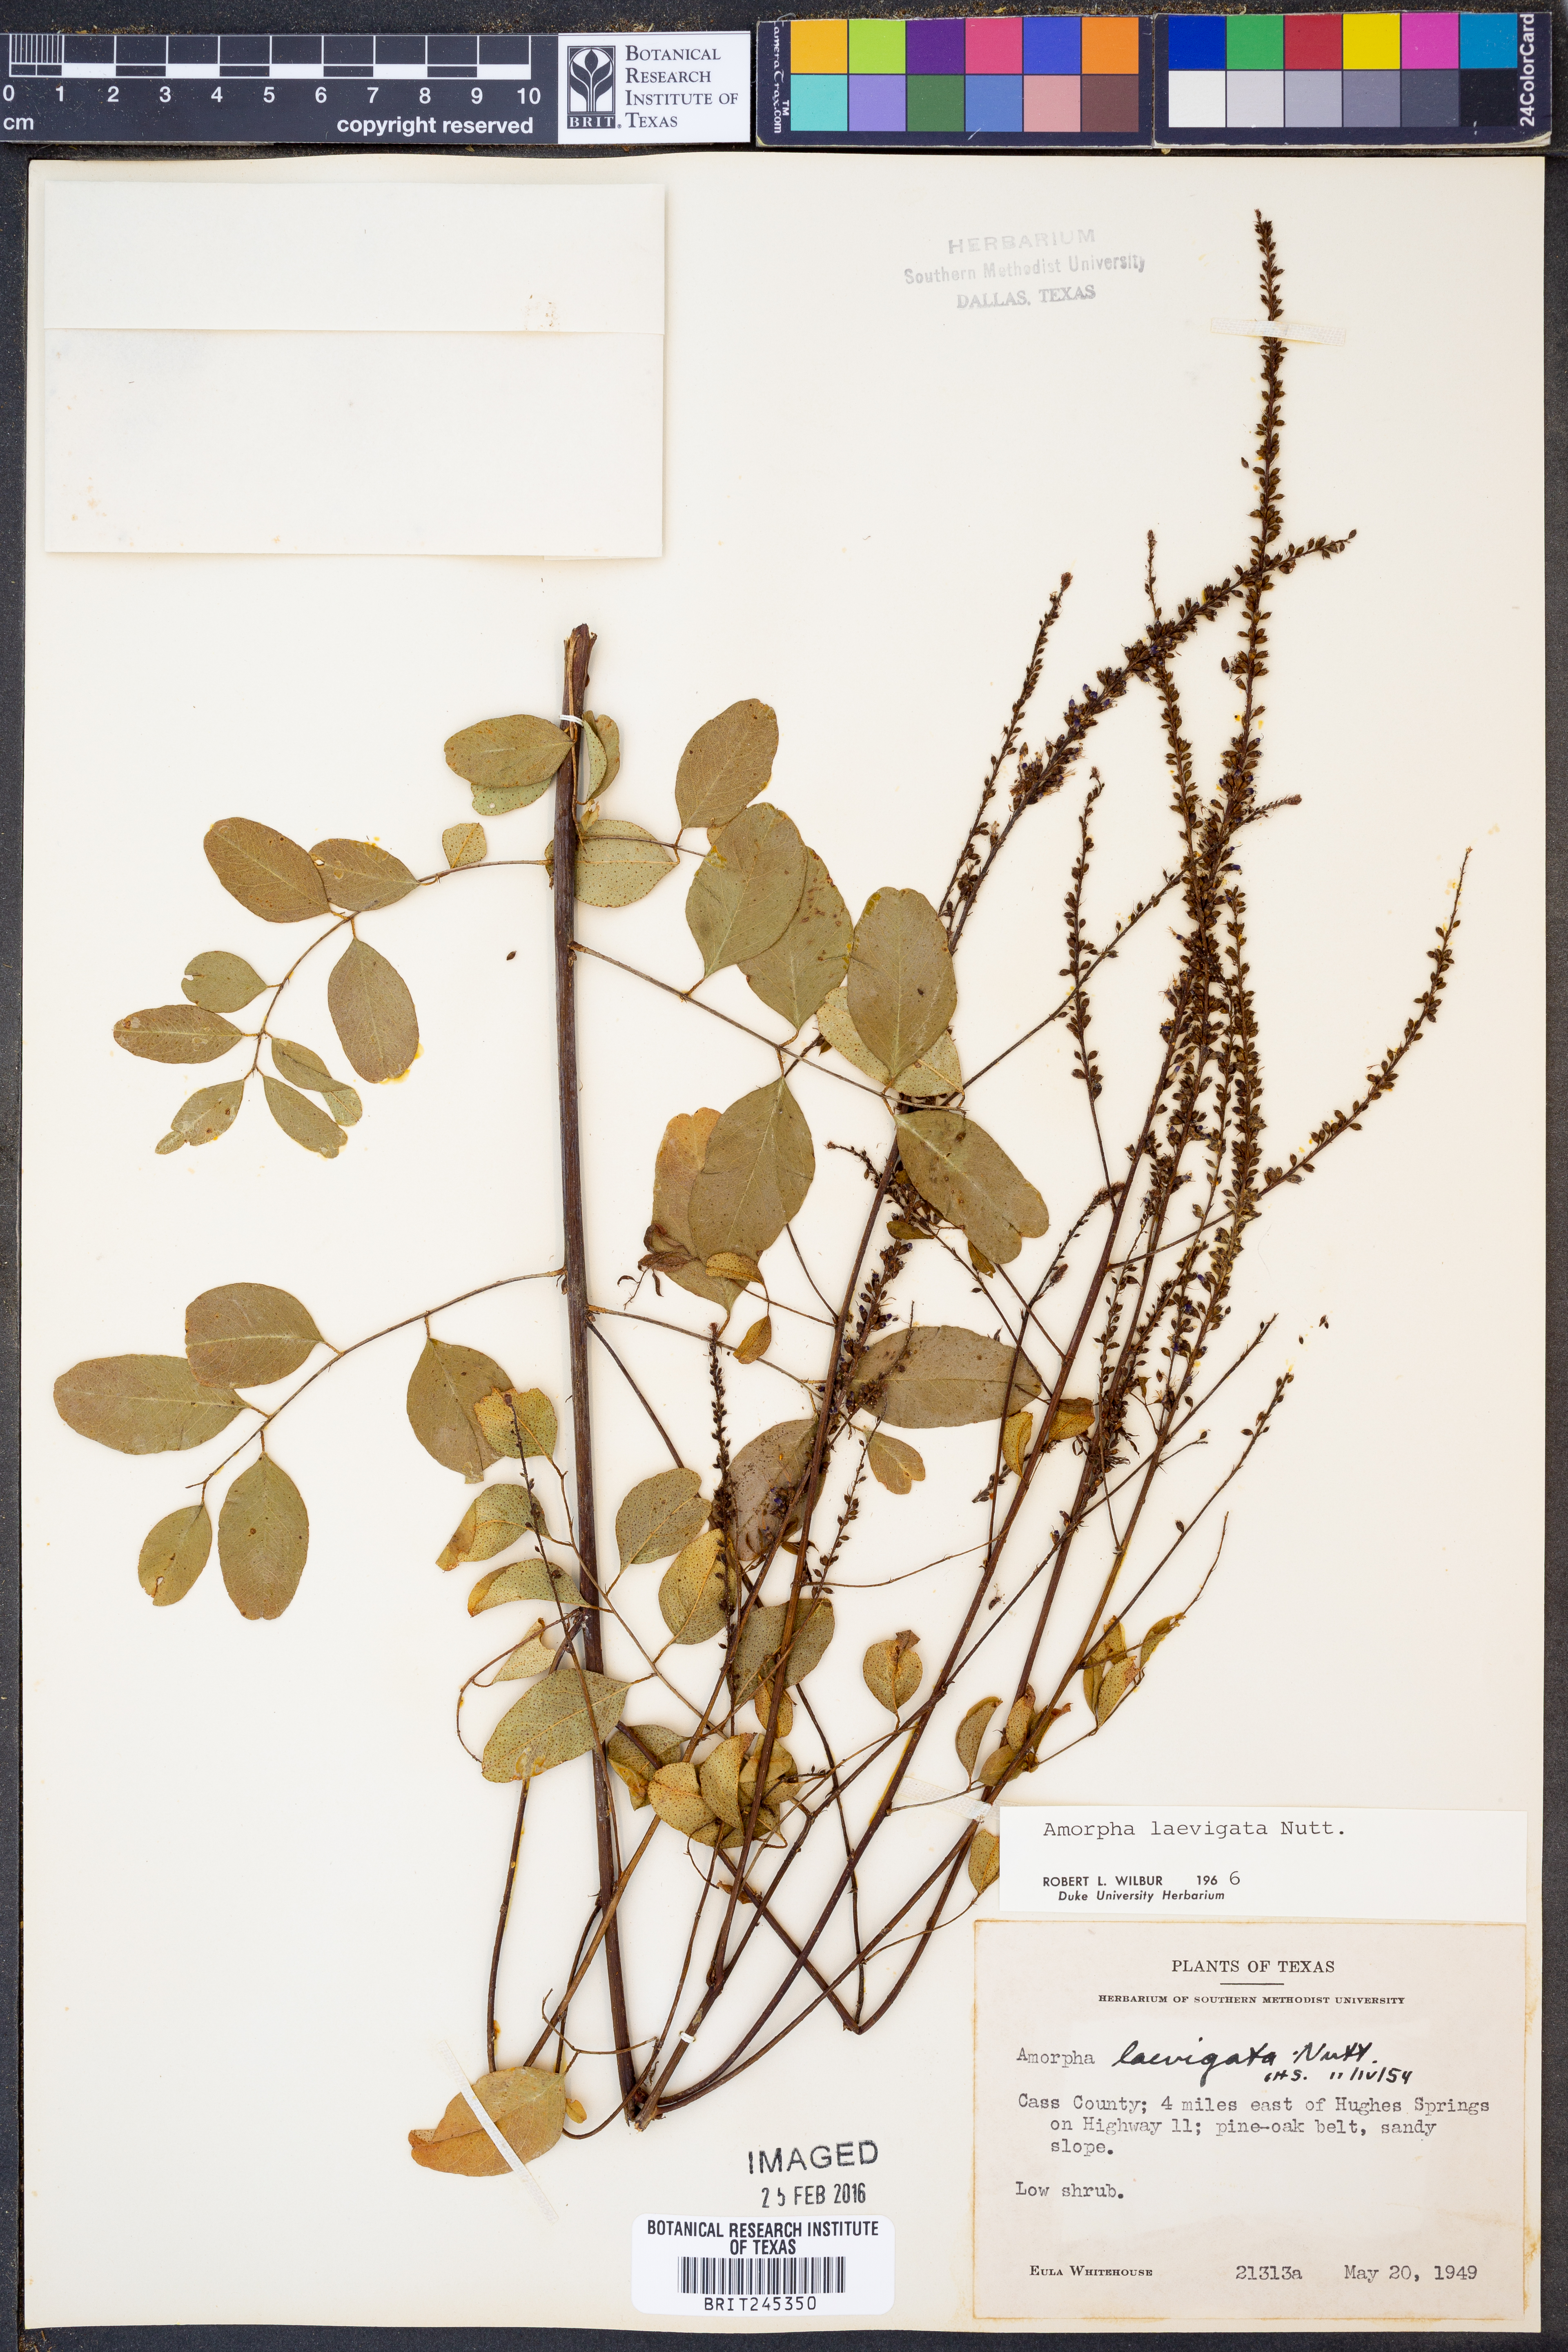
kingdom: Plantae
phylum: Tracheophyta
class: Magnoliopsida
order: Fabales
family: Fabaceae
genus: Amorpha
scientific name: Amorpha laevigata
